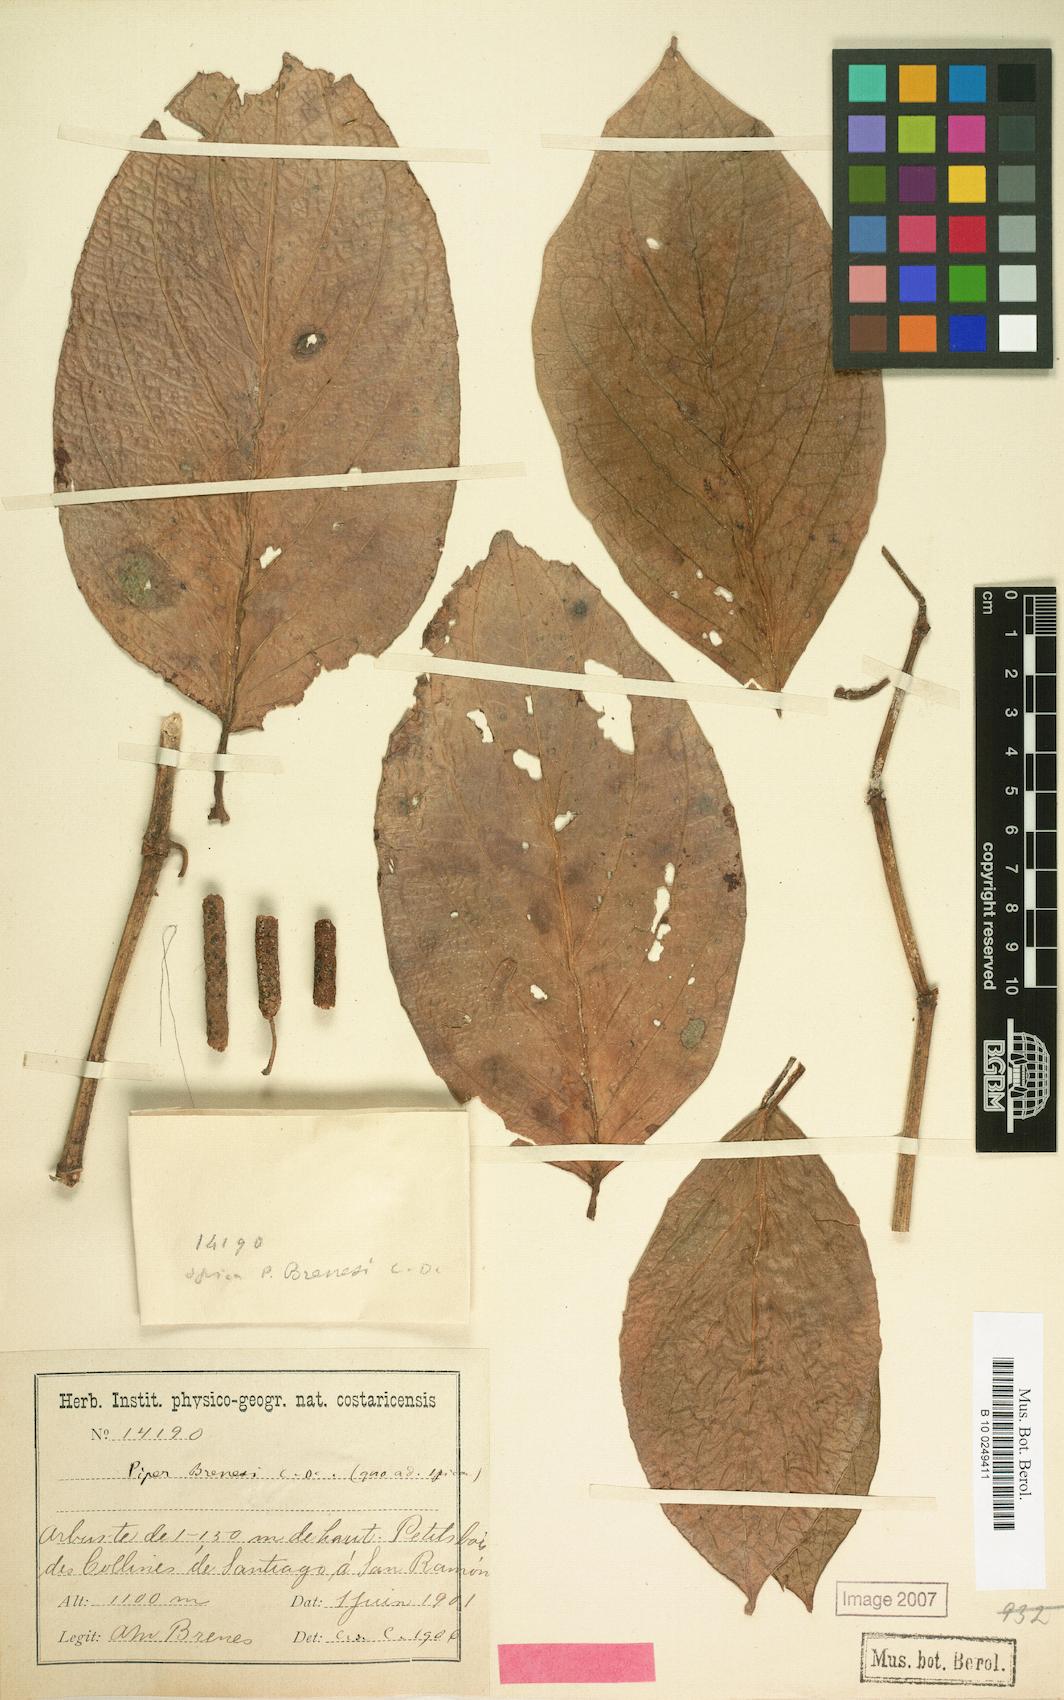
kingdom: Plantae
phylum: Tracheophyta
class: Magnoliopsida
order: Piperales
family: Piperaceae
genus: Piper
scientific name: Piper brenesii
